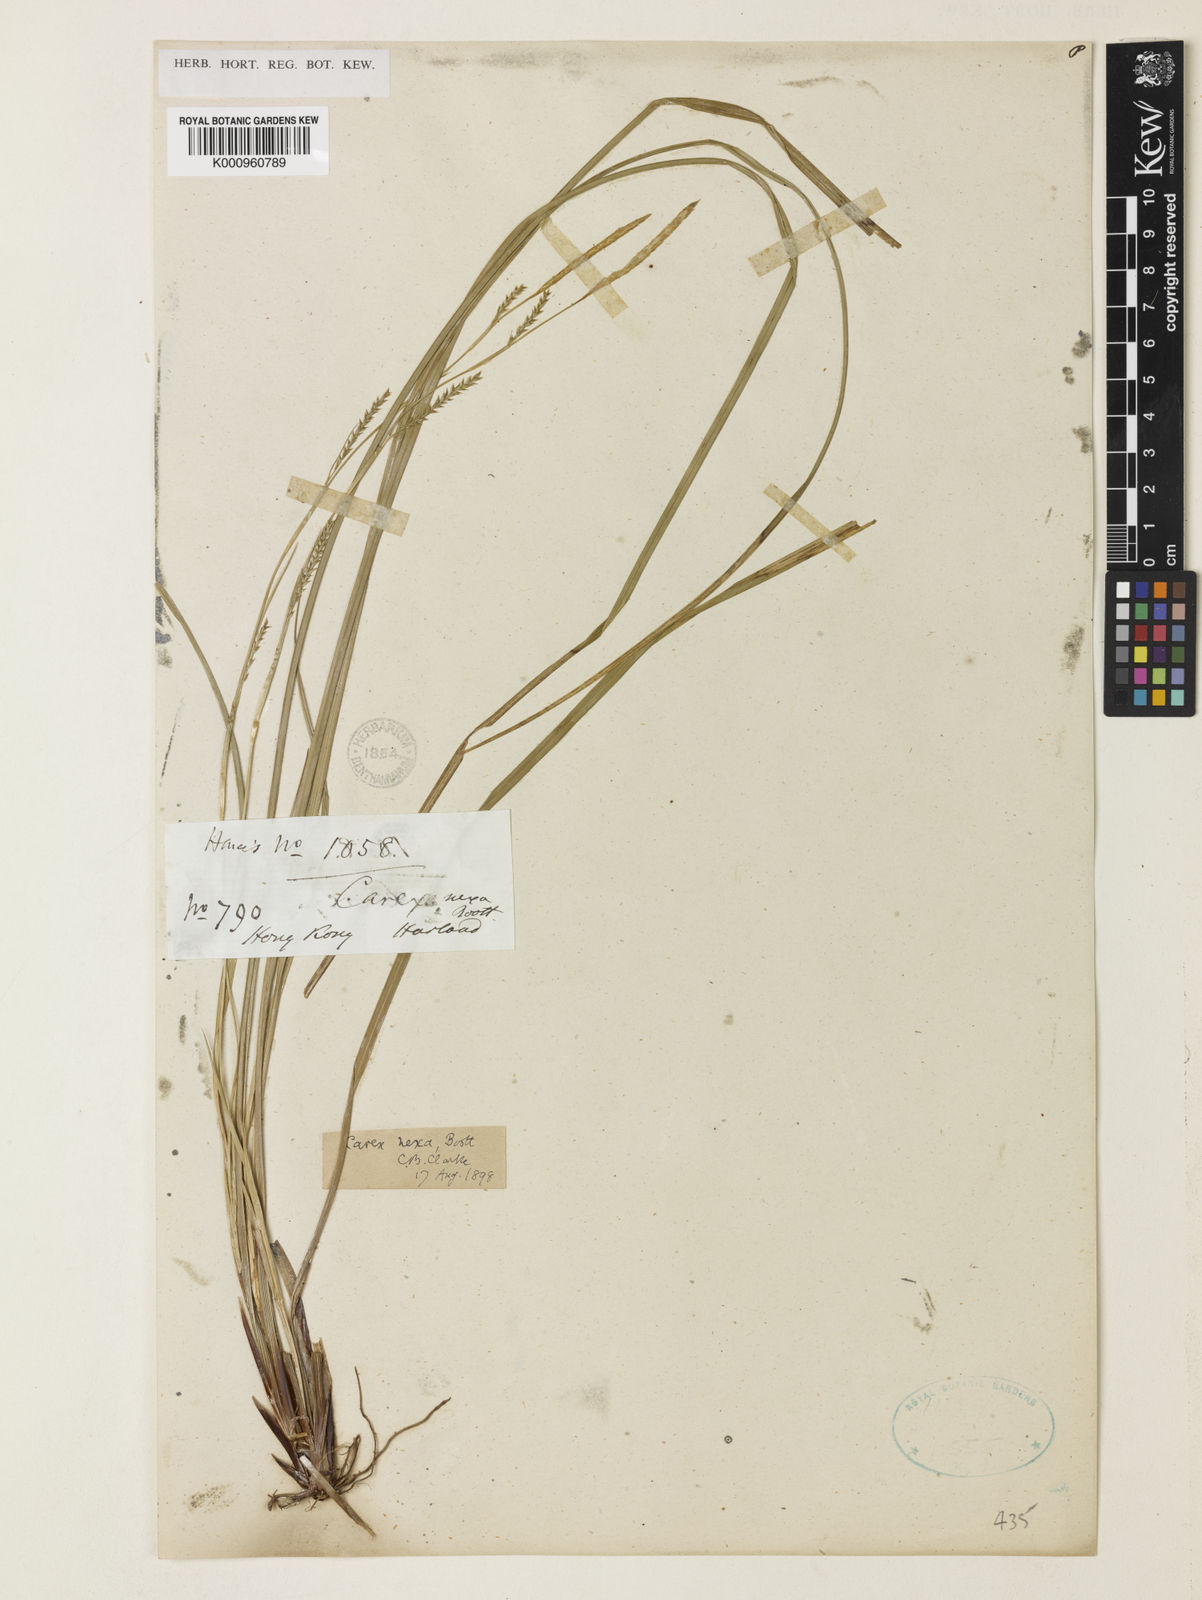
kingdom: Plantae
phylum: Tracheophyta
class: Liliopsida
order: Poales
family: Cyperaceae
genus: Carex
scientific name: Carex
